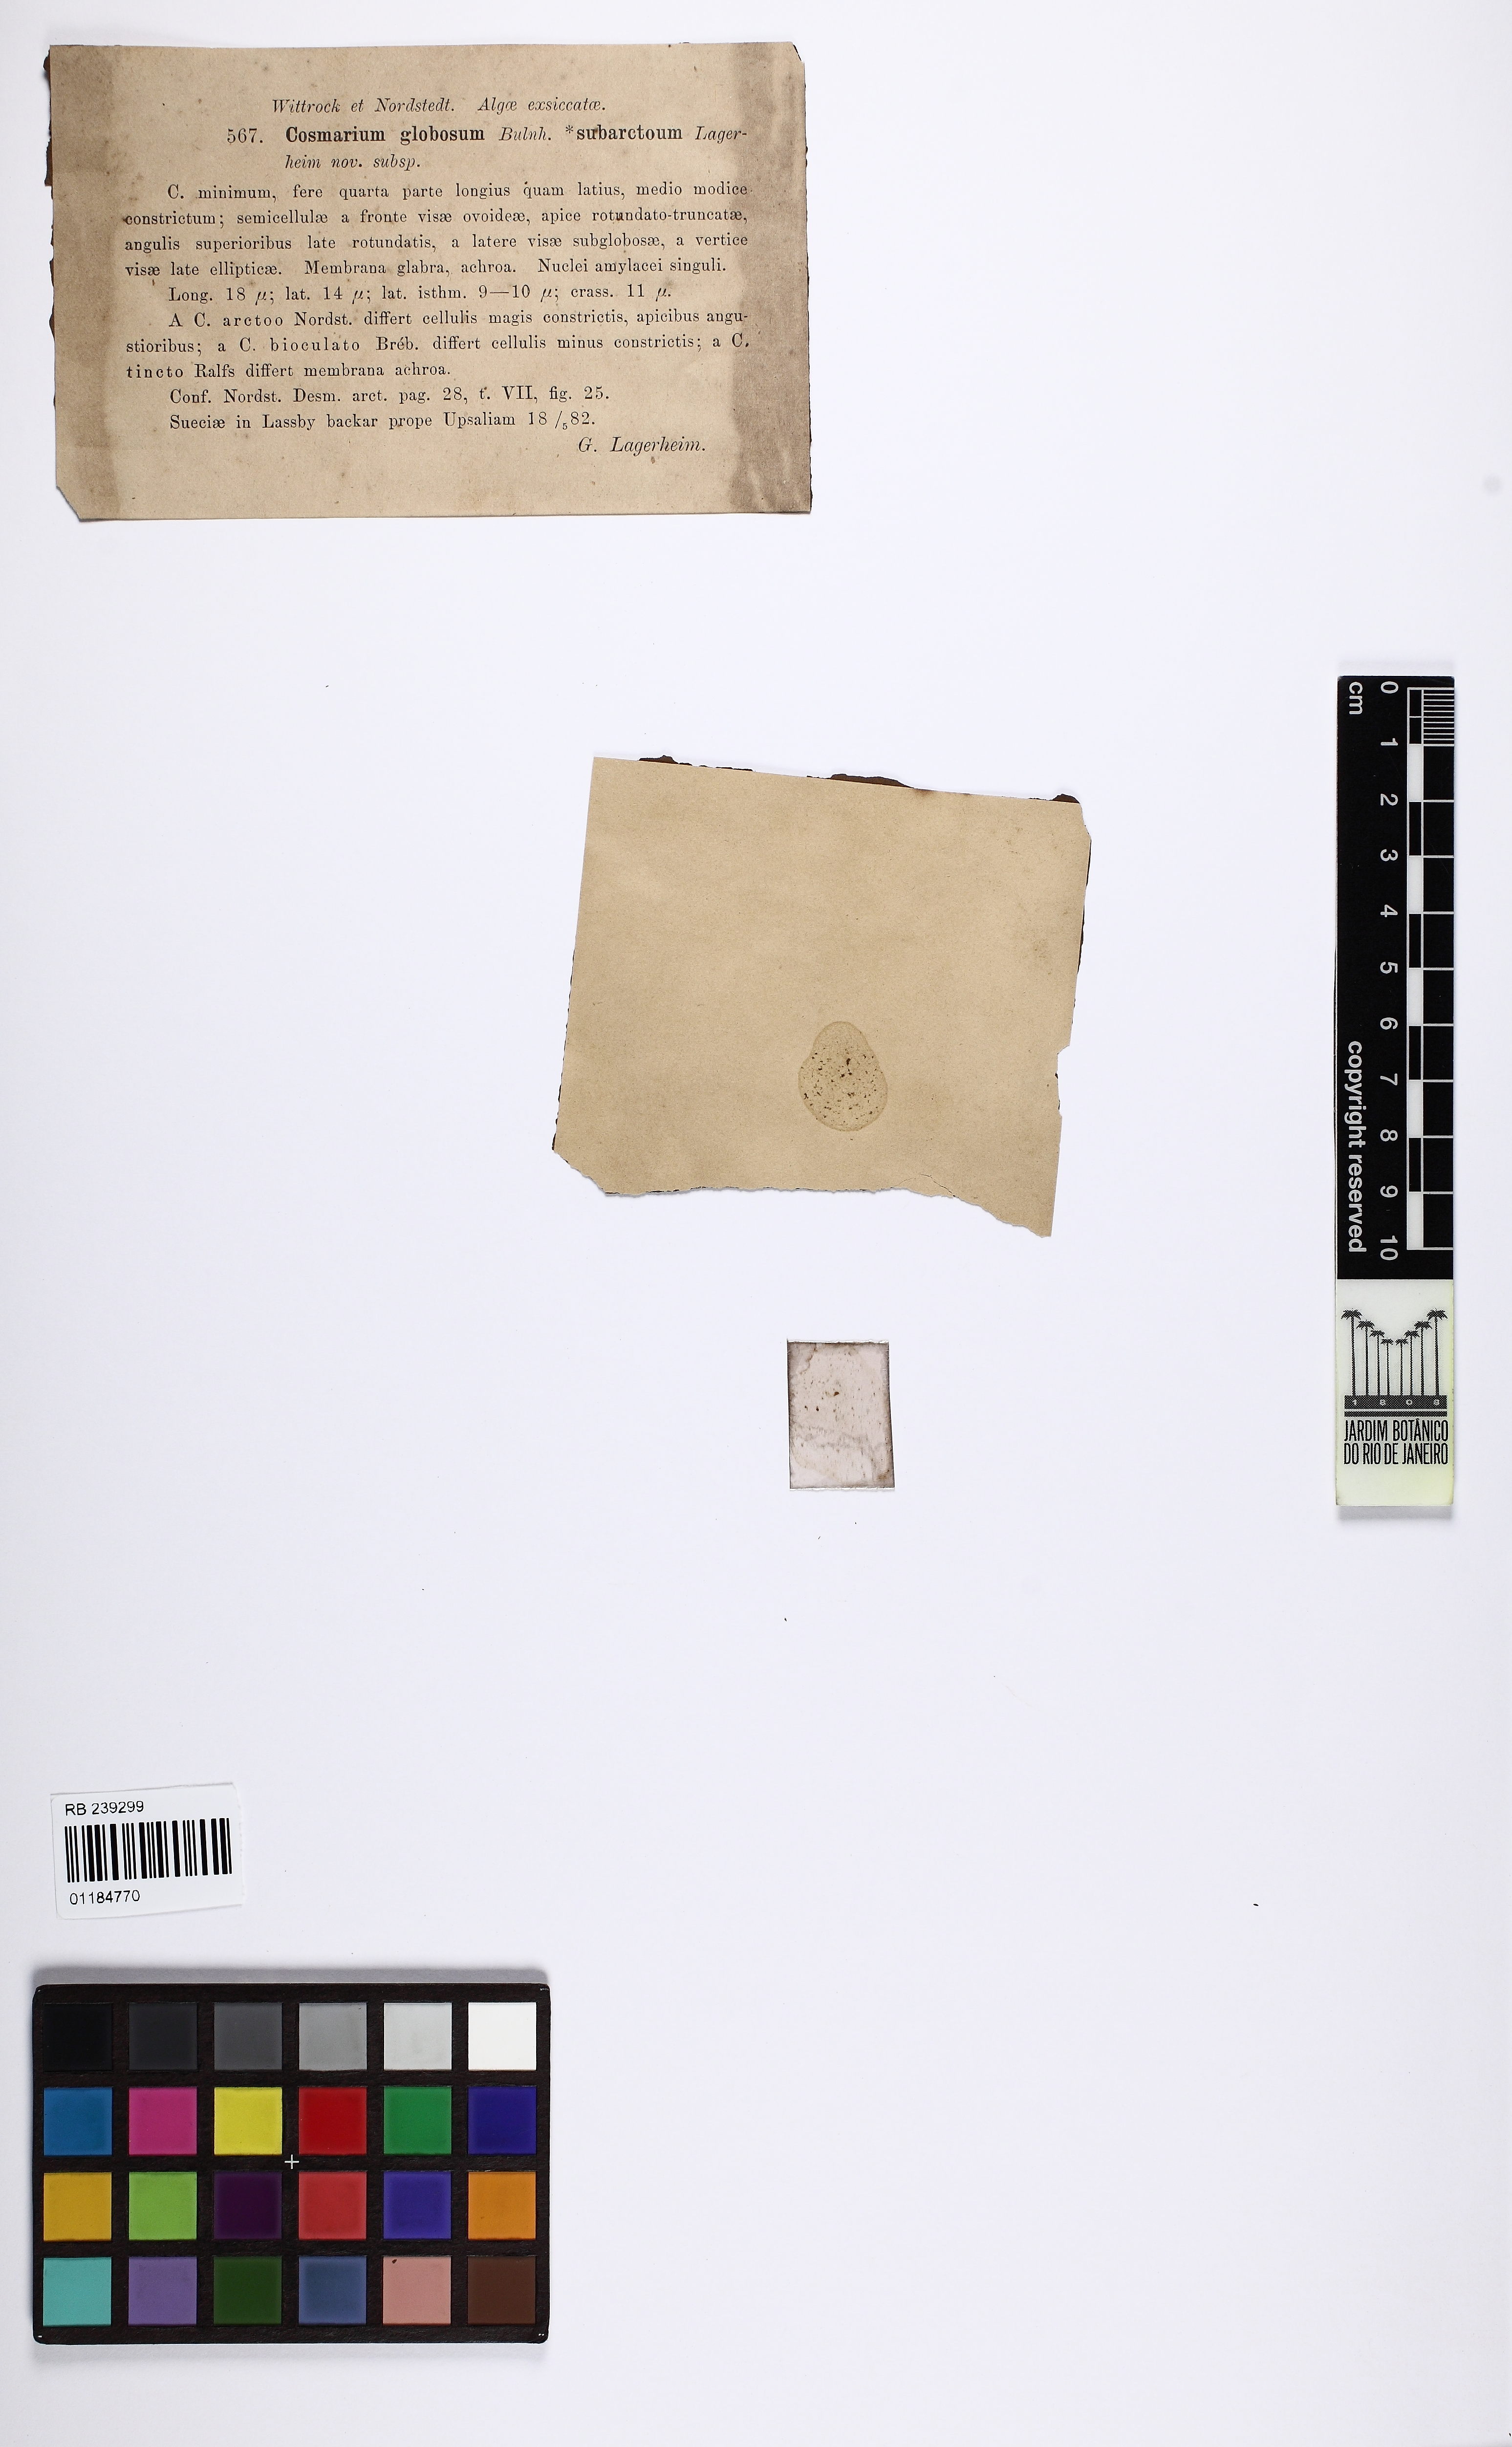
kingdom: Plantae
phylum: Charophyta
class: Conjugatophyceae
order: Desmidiales
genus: Cosmarium
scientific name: Cosmarium subarctoum
